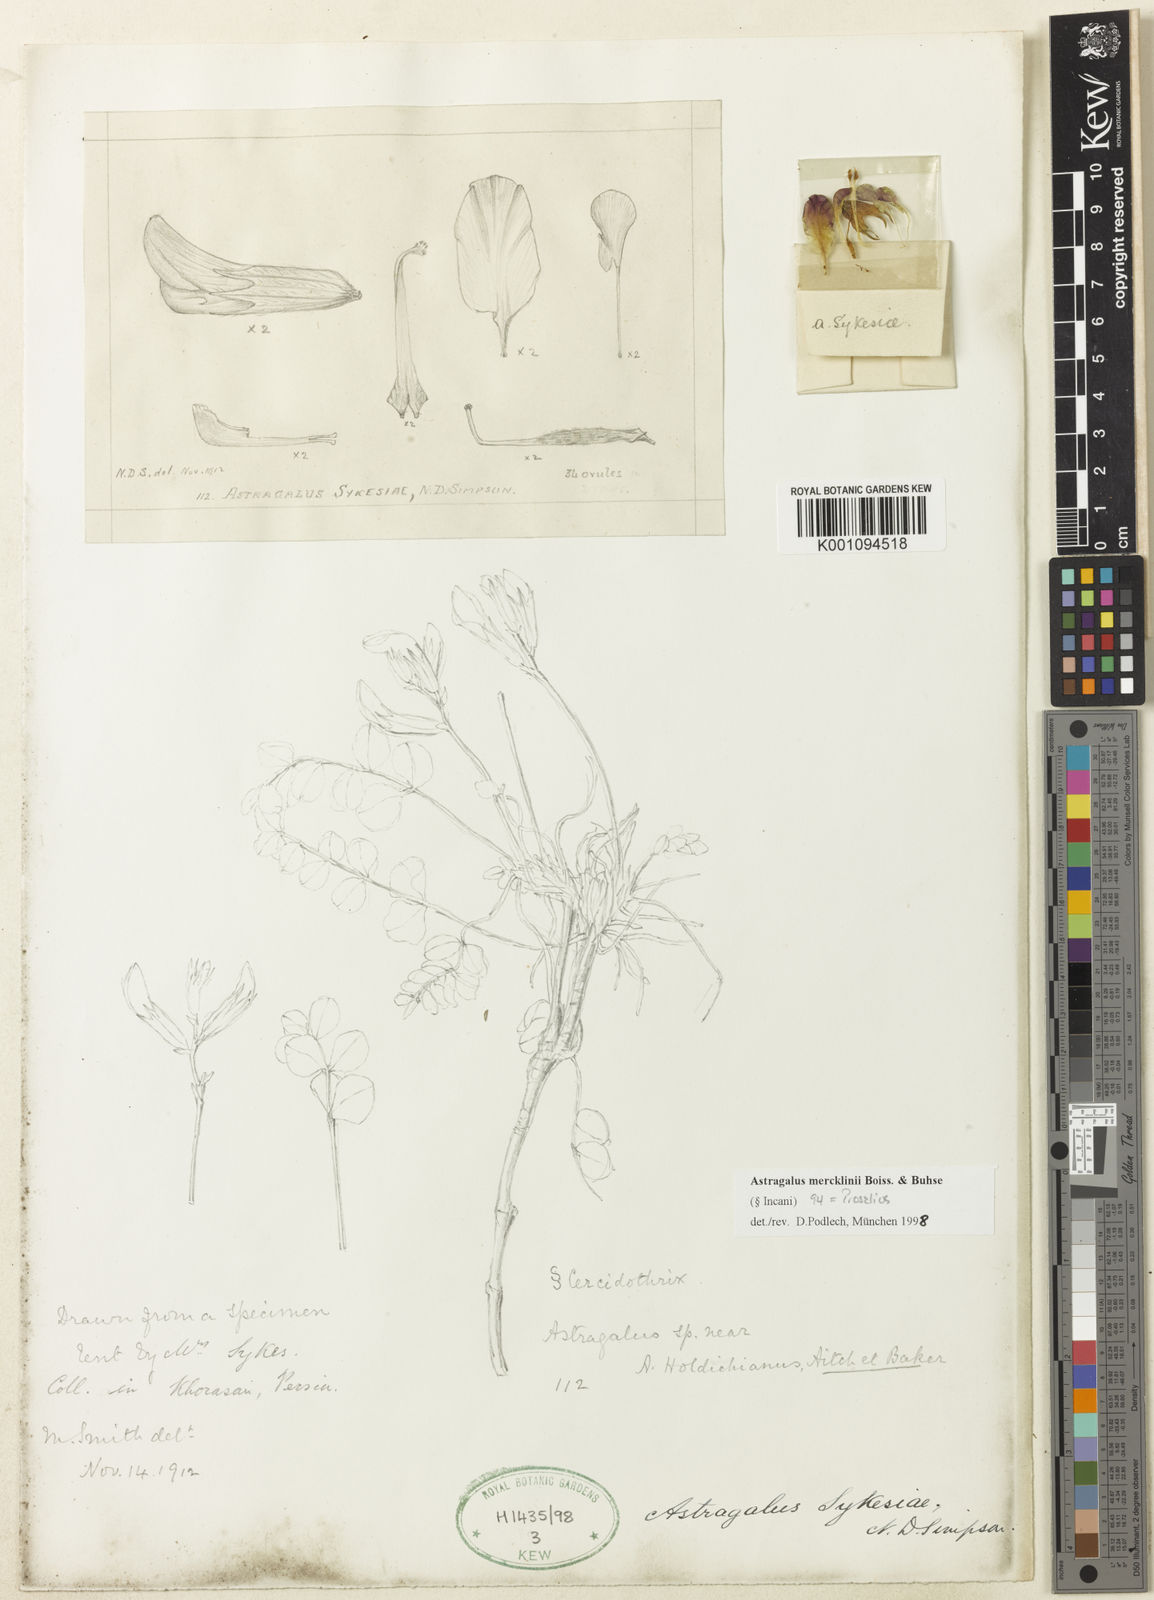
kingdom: Plantae
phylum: Tracheophyta
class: Magnoliopsida
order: Fabales
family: Fabaceae
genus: Astragalus
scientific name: Astragalus
